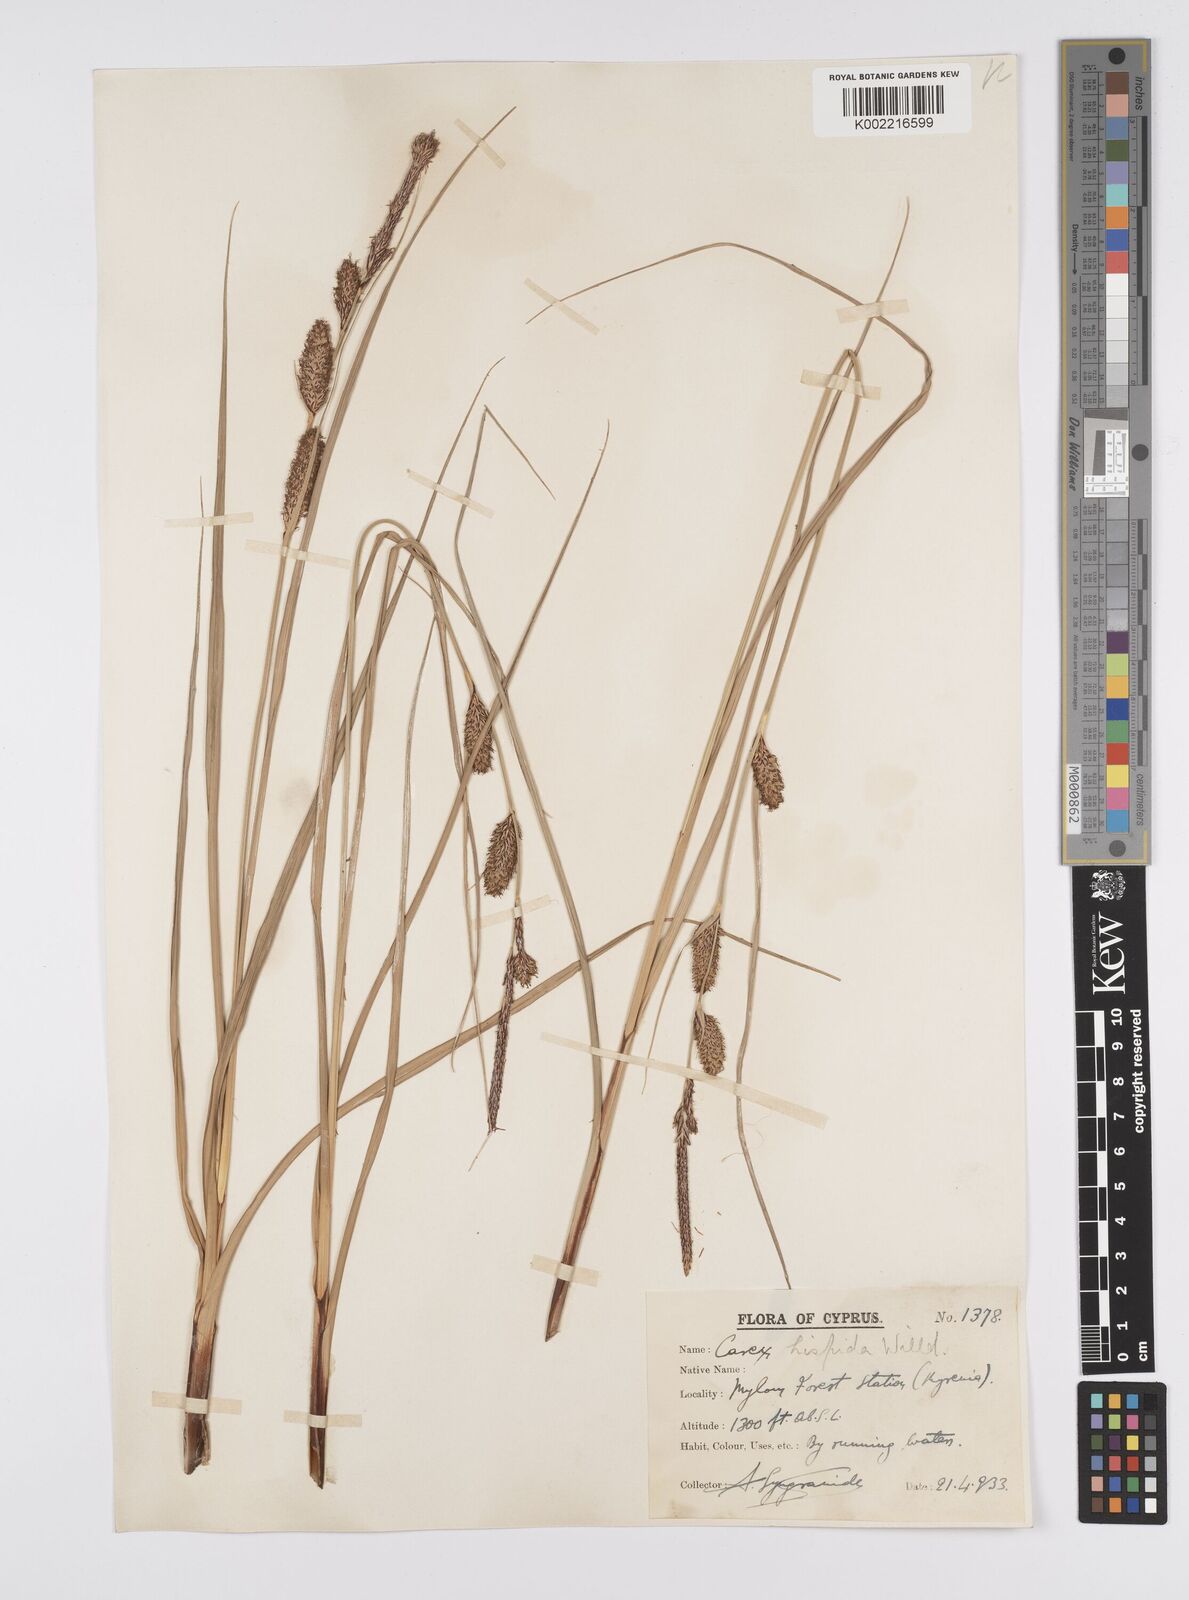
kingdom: Plantae
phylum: Tracheophyta
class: Liliopsida
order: Poales
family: Cyperaceae
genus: Carex
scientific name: Carex hispida
